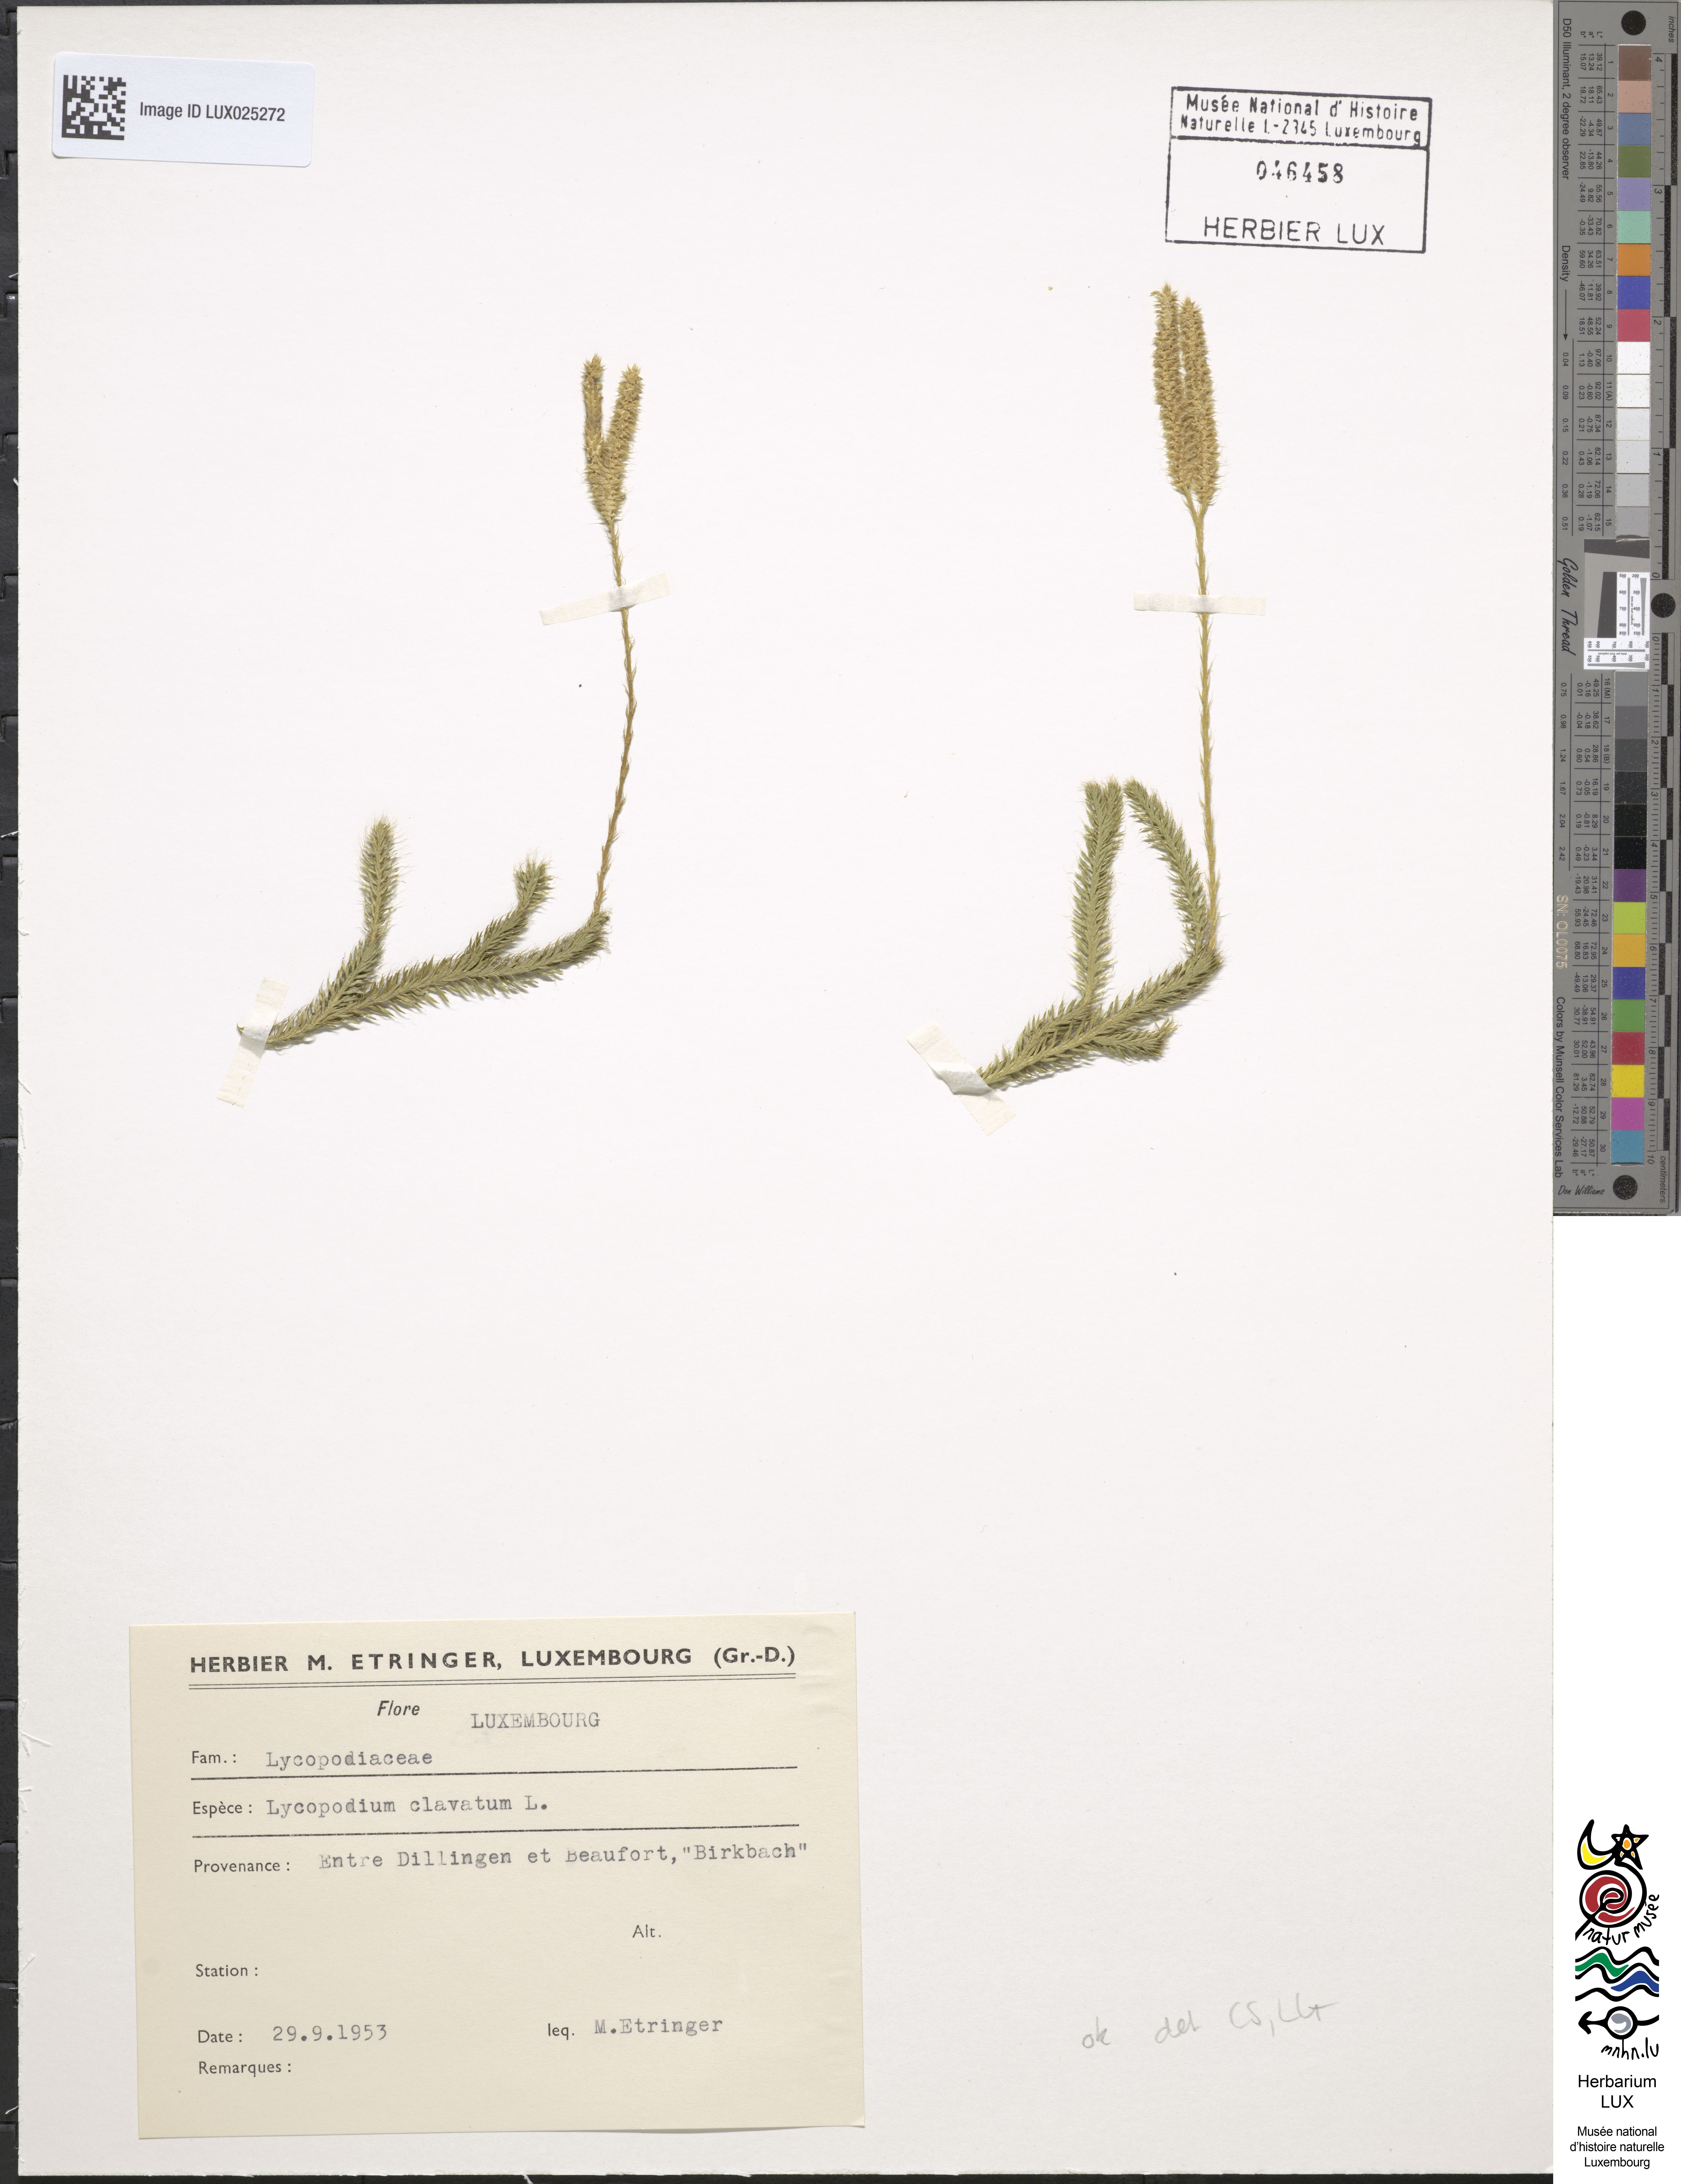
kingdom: Plantae
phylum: Tracheophyta
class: Lycopodiopsida
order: Lycopodiales
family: Lycopodiaceae
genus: Lycopodium
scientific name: Lycopodium clavatum
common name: Stag's-horn clubmoss
